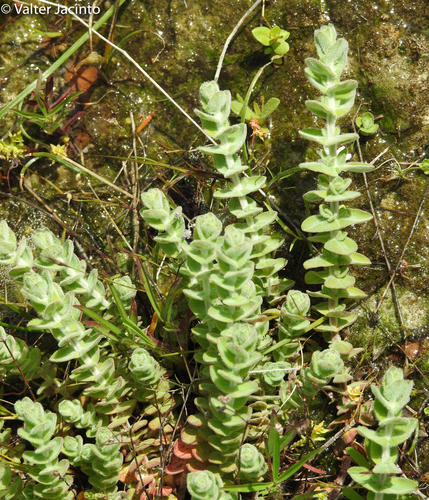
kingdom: Plantae
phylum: Tracheophyta
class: Magnoliopsida
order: Malpighiales
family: Hypericaceae
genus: Hypericum
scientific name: Hypericum elodes
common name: Marsh st. john's-wort
